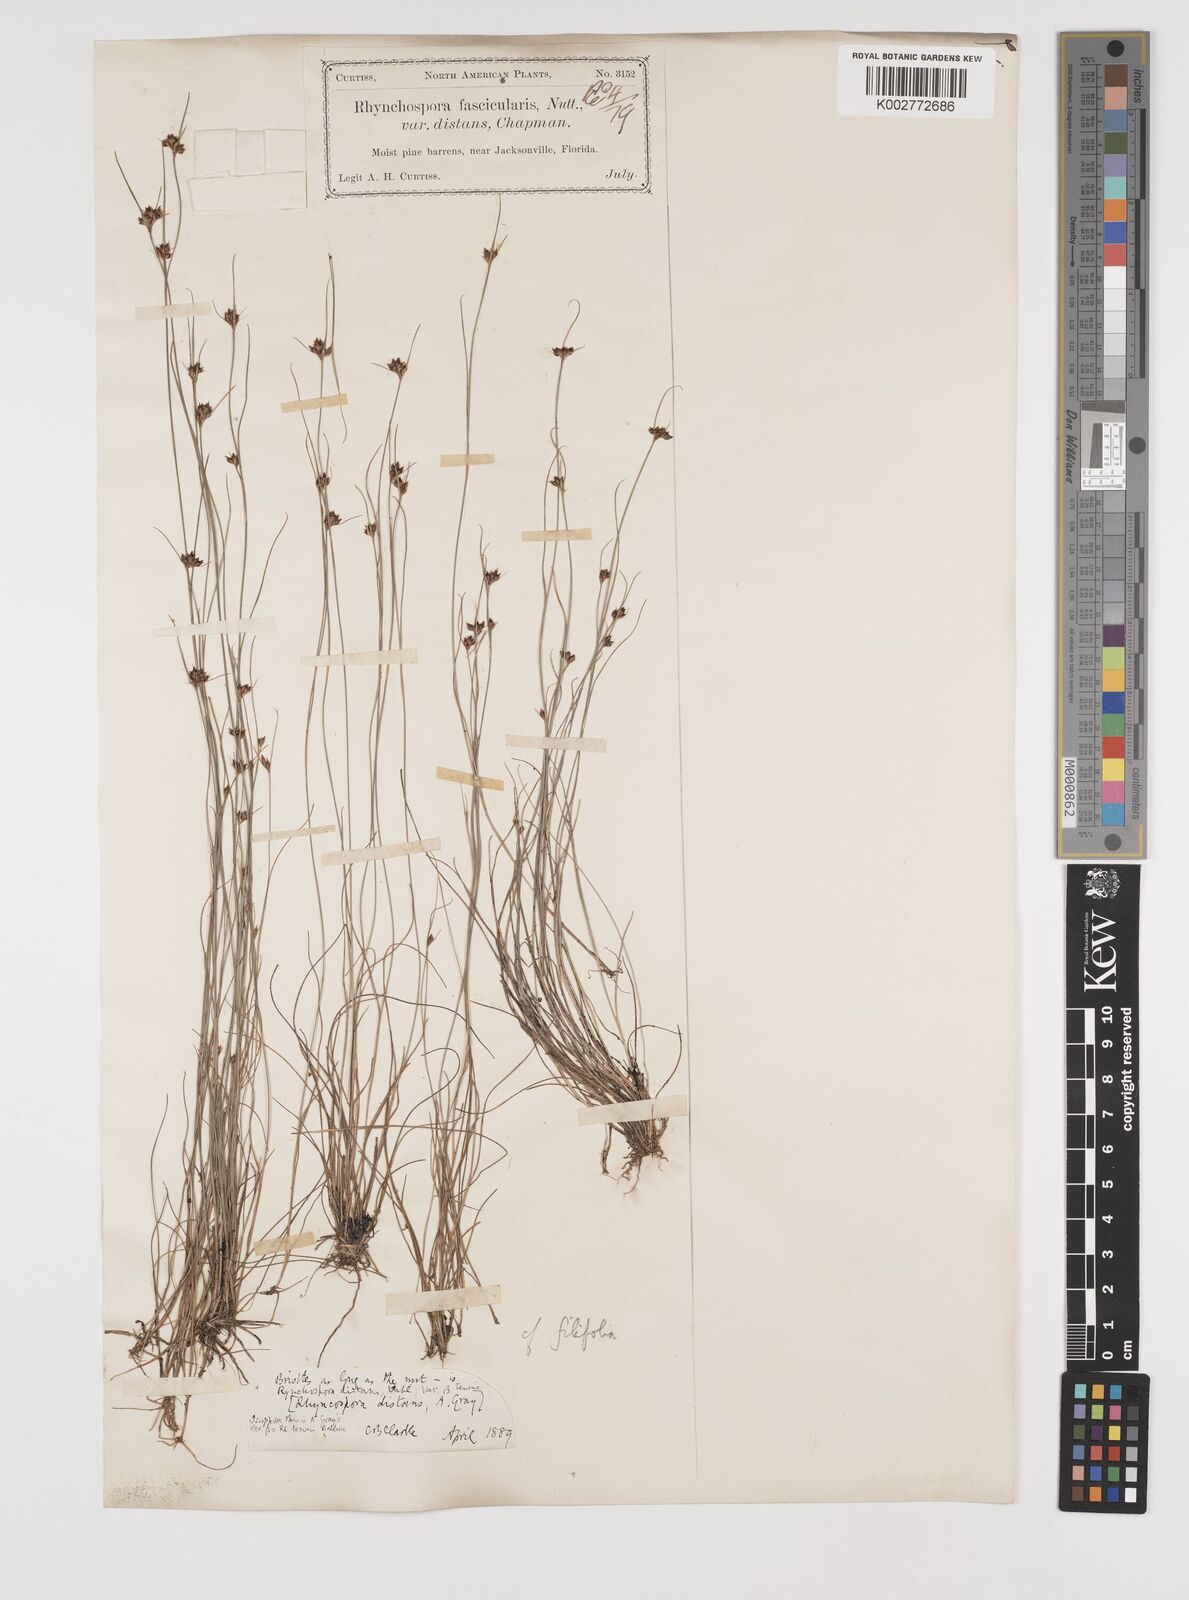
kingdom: Plantae
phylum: Tracheophyta
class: Liliopsida
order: Poales
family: Cyperaceae
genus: Rhynchospora
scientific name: Rhynchospora fascicularis
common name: Fascicled beak sedge
